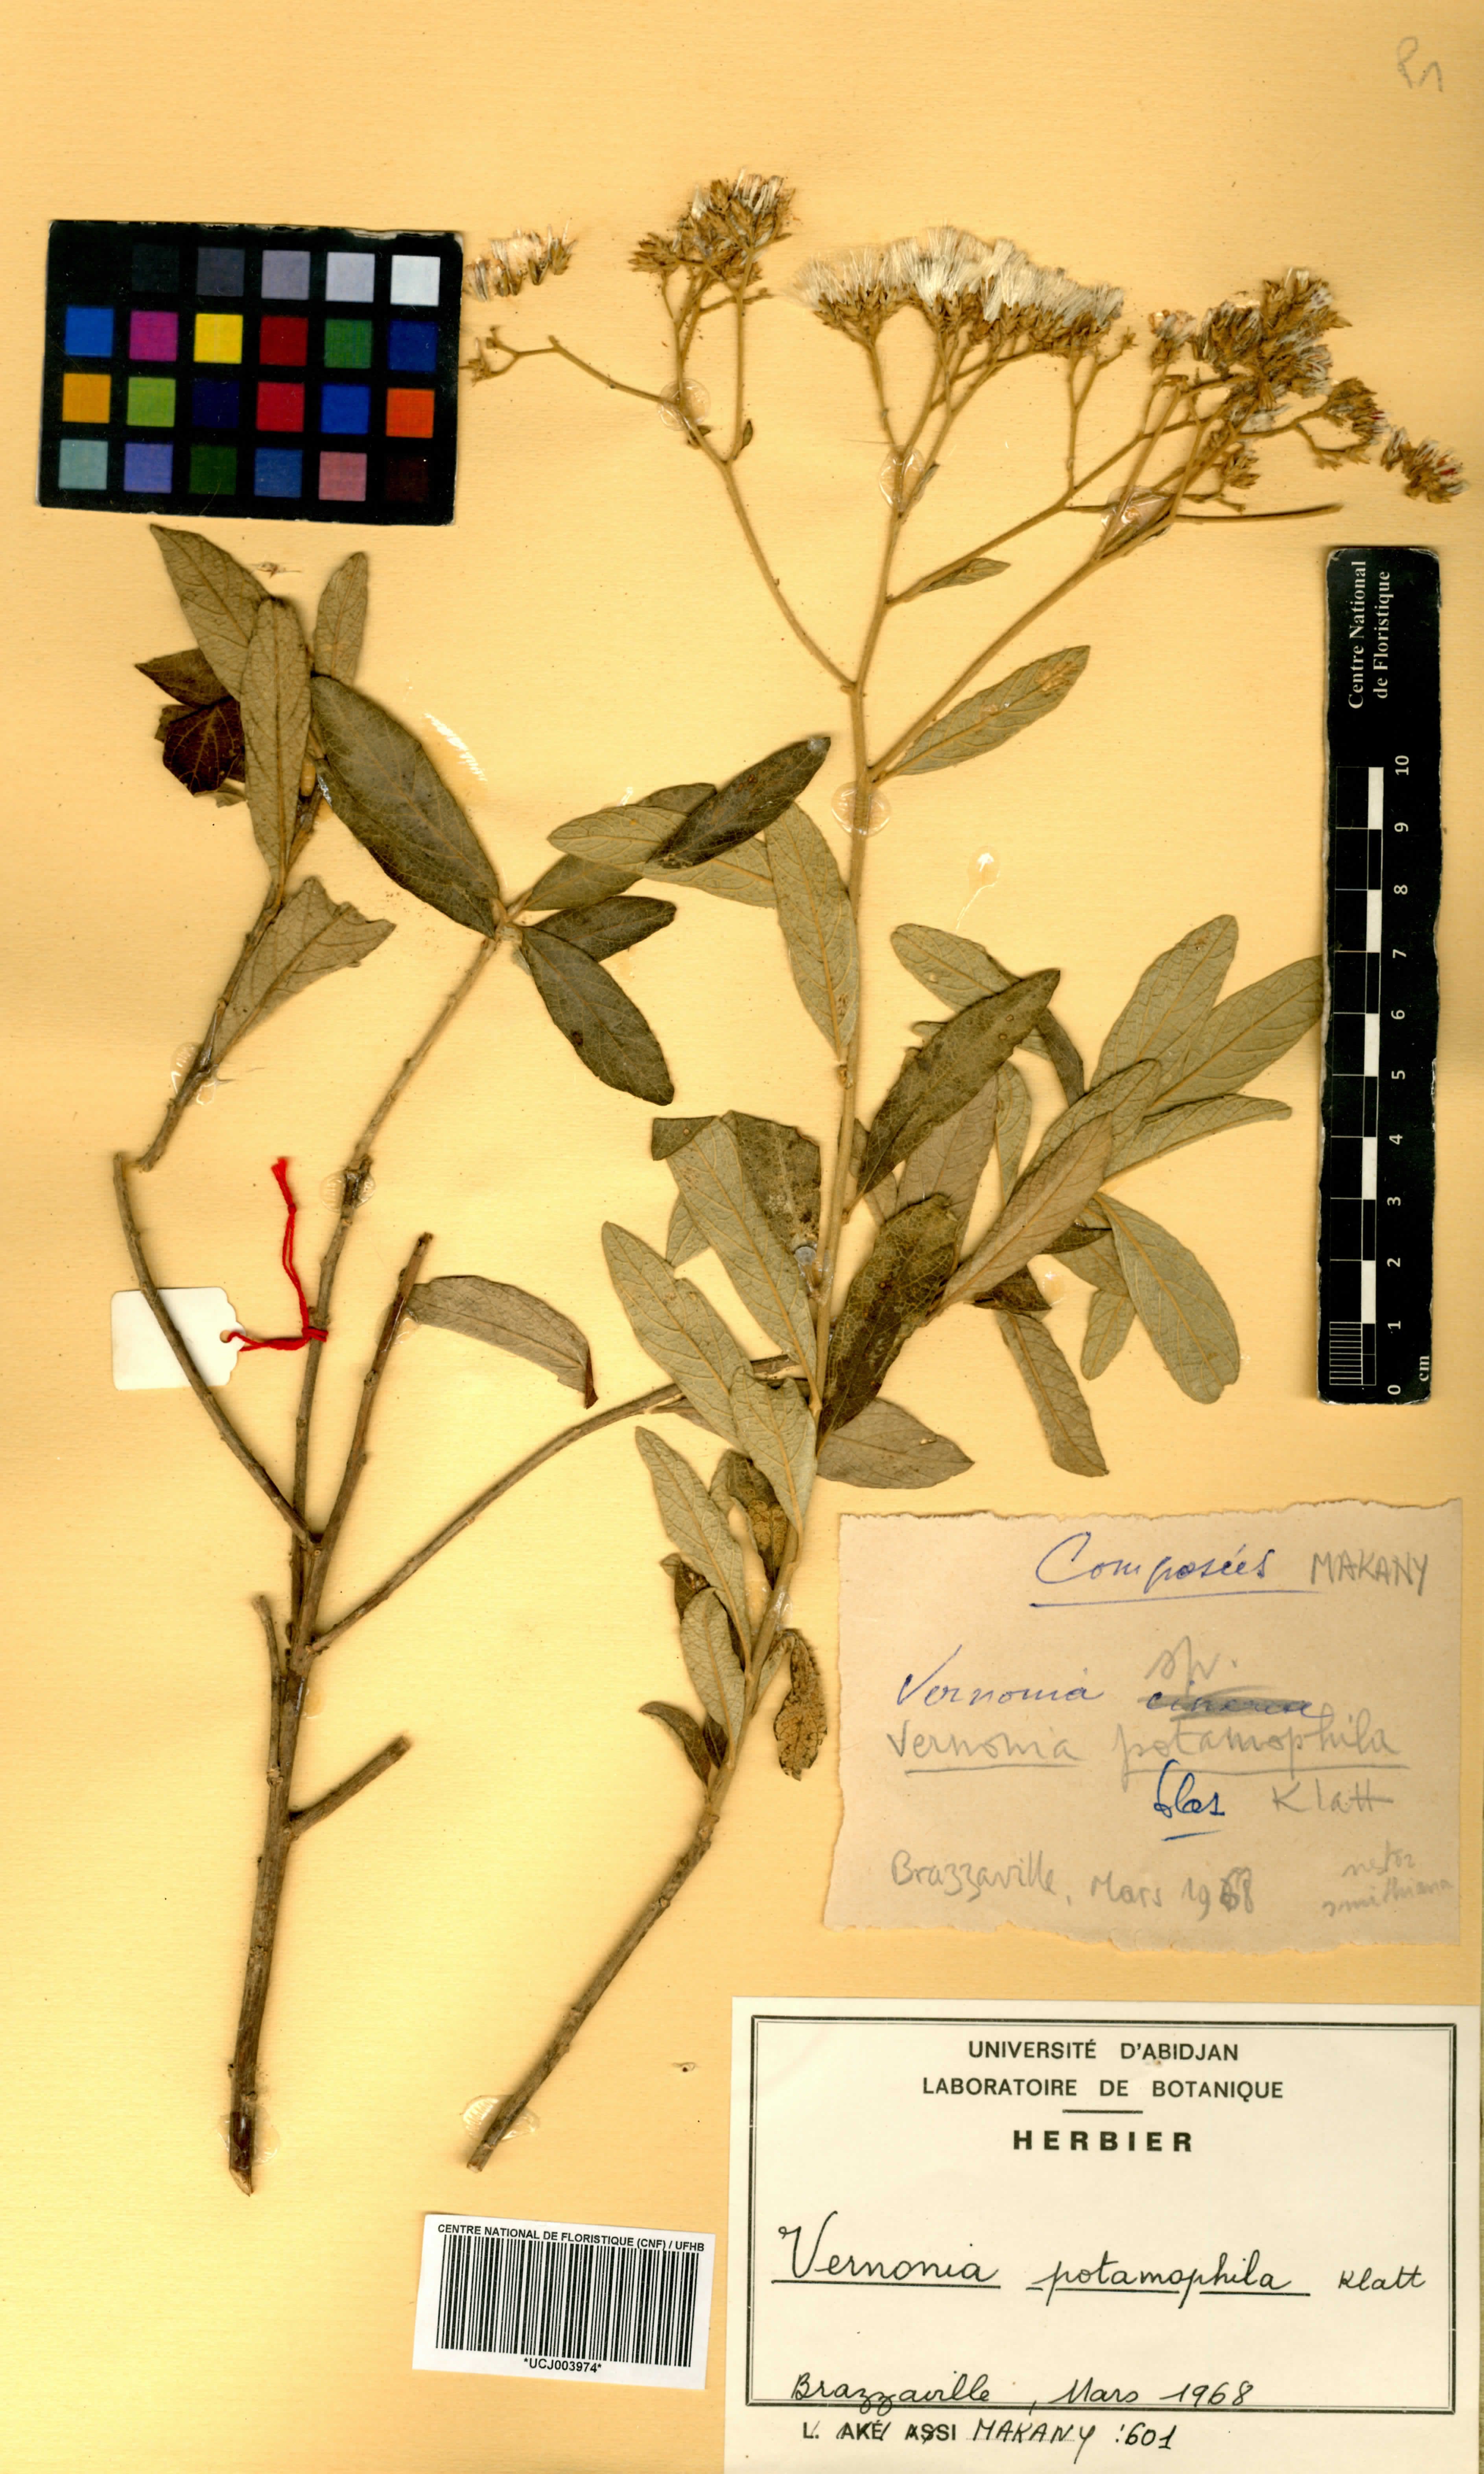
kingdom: Plantae
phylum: Tracheophyta
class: Magnoliopsida
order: Asterales
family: Asteraceae
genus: Vernonia
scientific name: Vernonia potamophila
